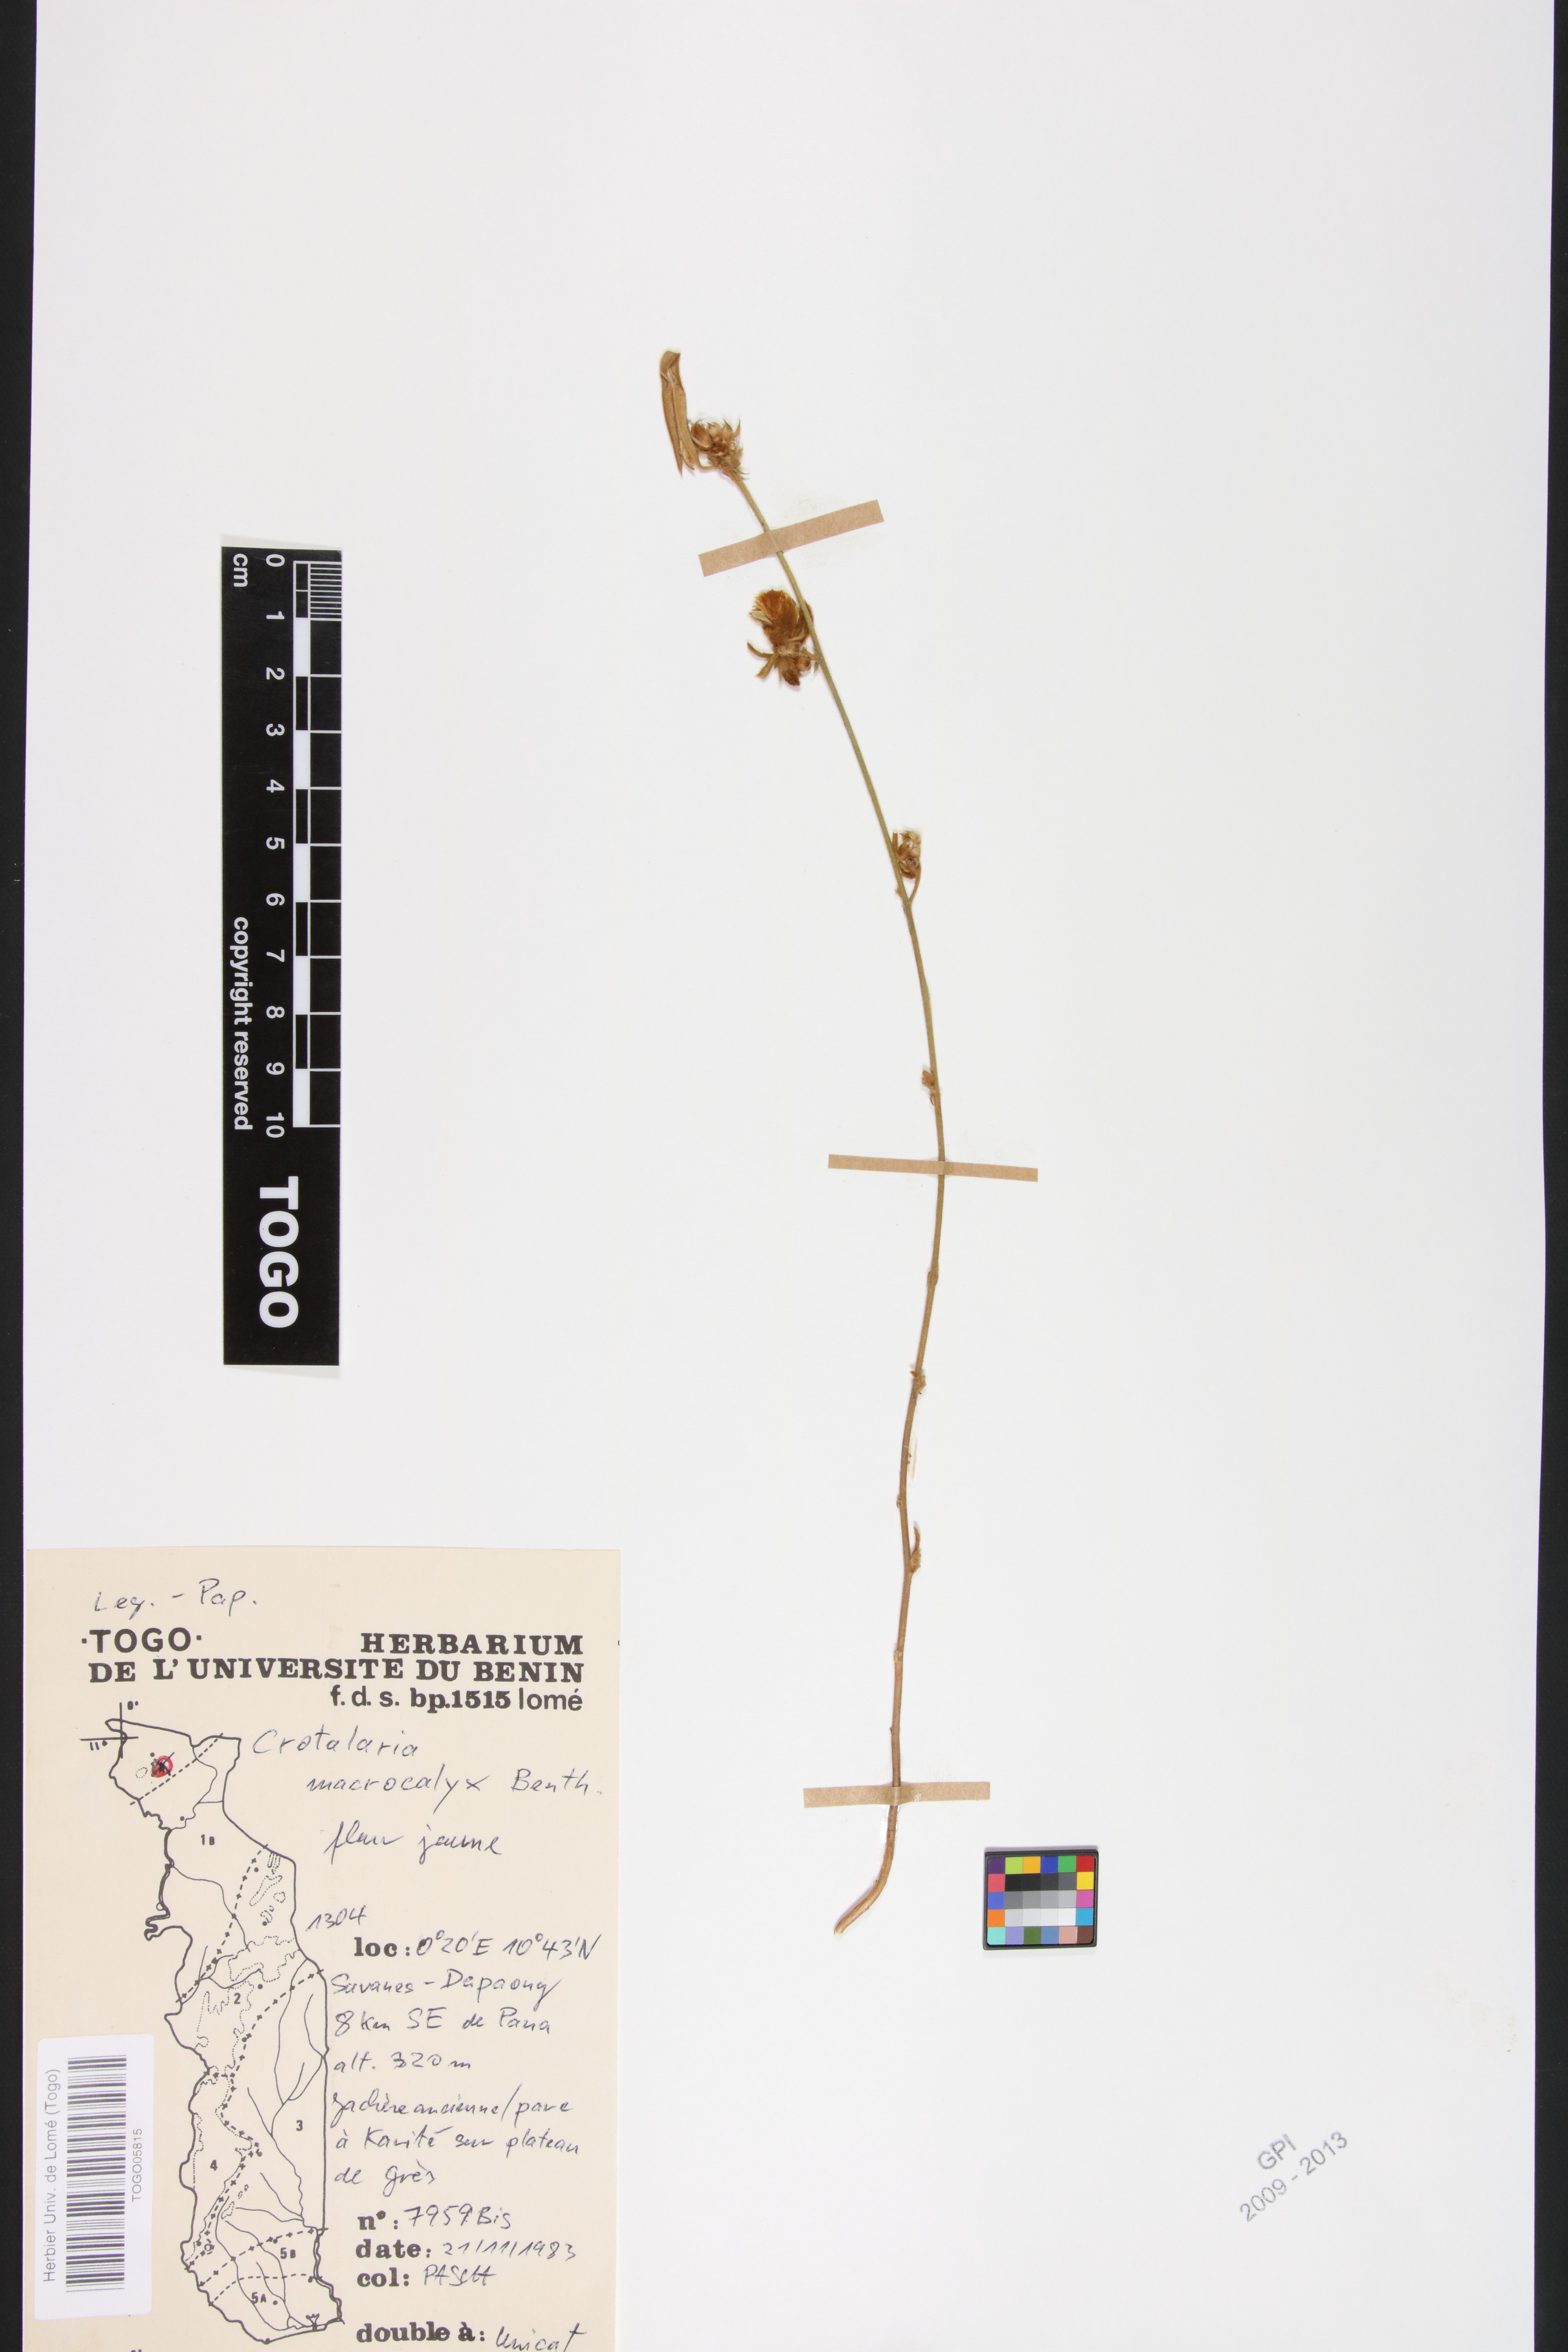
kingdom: Plantae
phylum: Tracheophyta
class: Magnoliopsida
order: Fabales
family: Fabaceae
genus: Crotalaria
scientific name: Crotalaria macrocalyx
